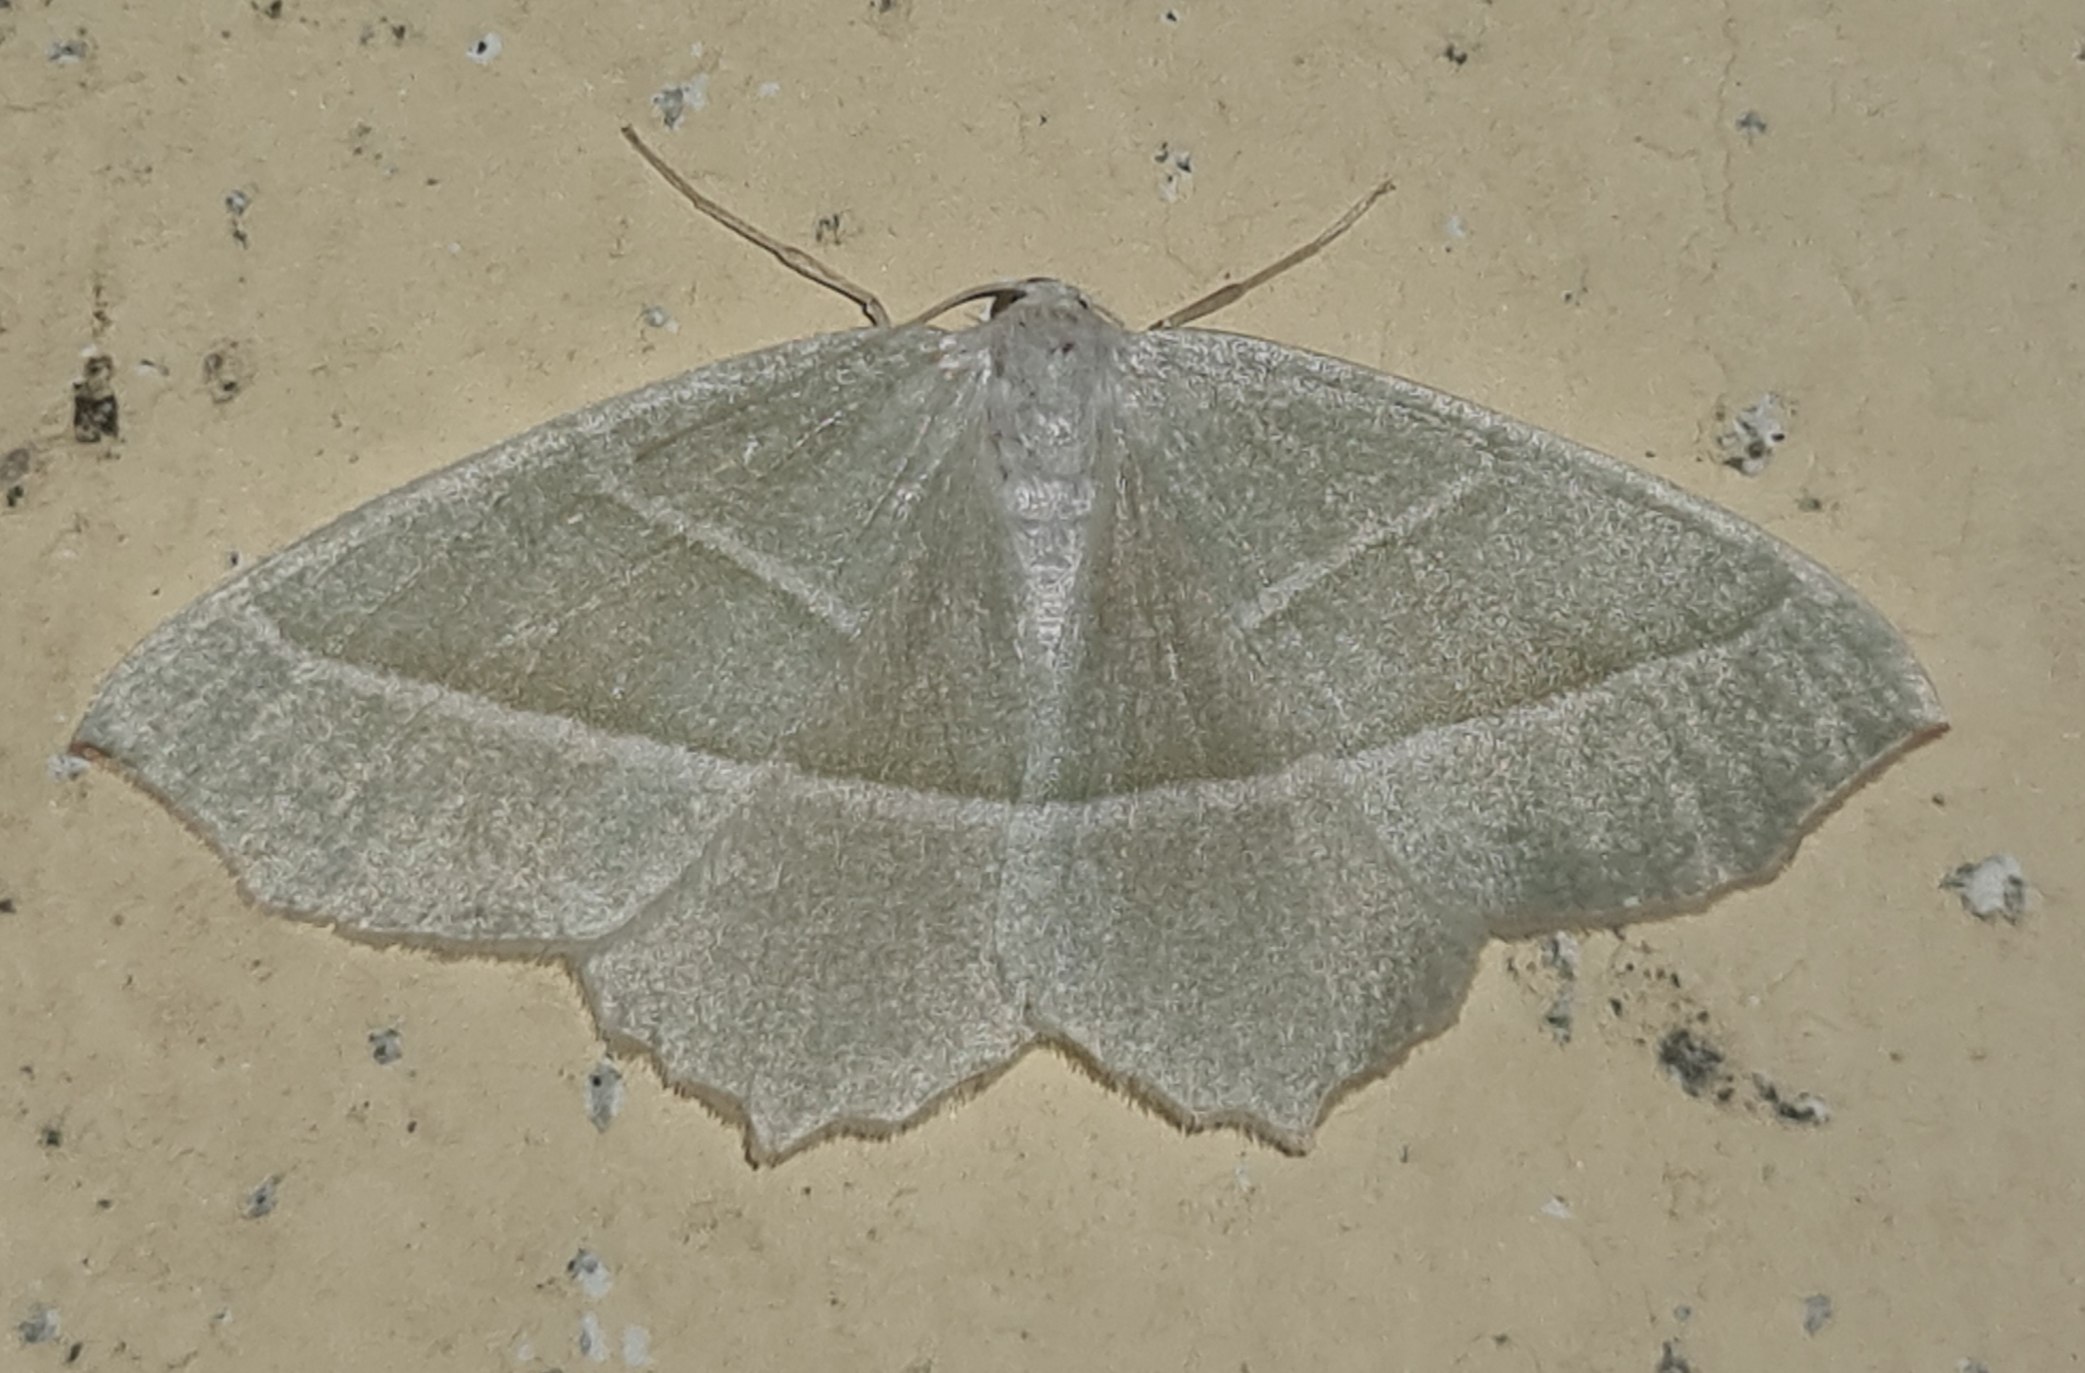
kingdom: Animalia
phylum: Arthropoda
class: Insecta
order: Lepidoptera
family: Geometridae
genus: Campaea
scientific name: Campaea margaritaria
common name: Perlemåler
